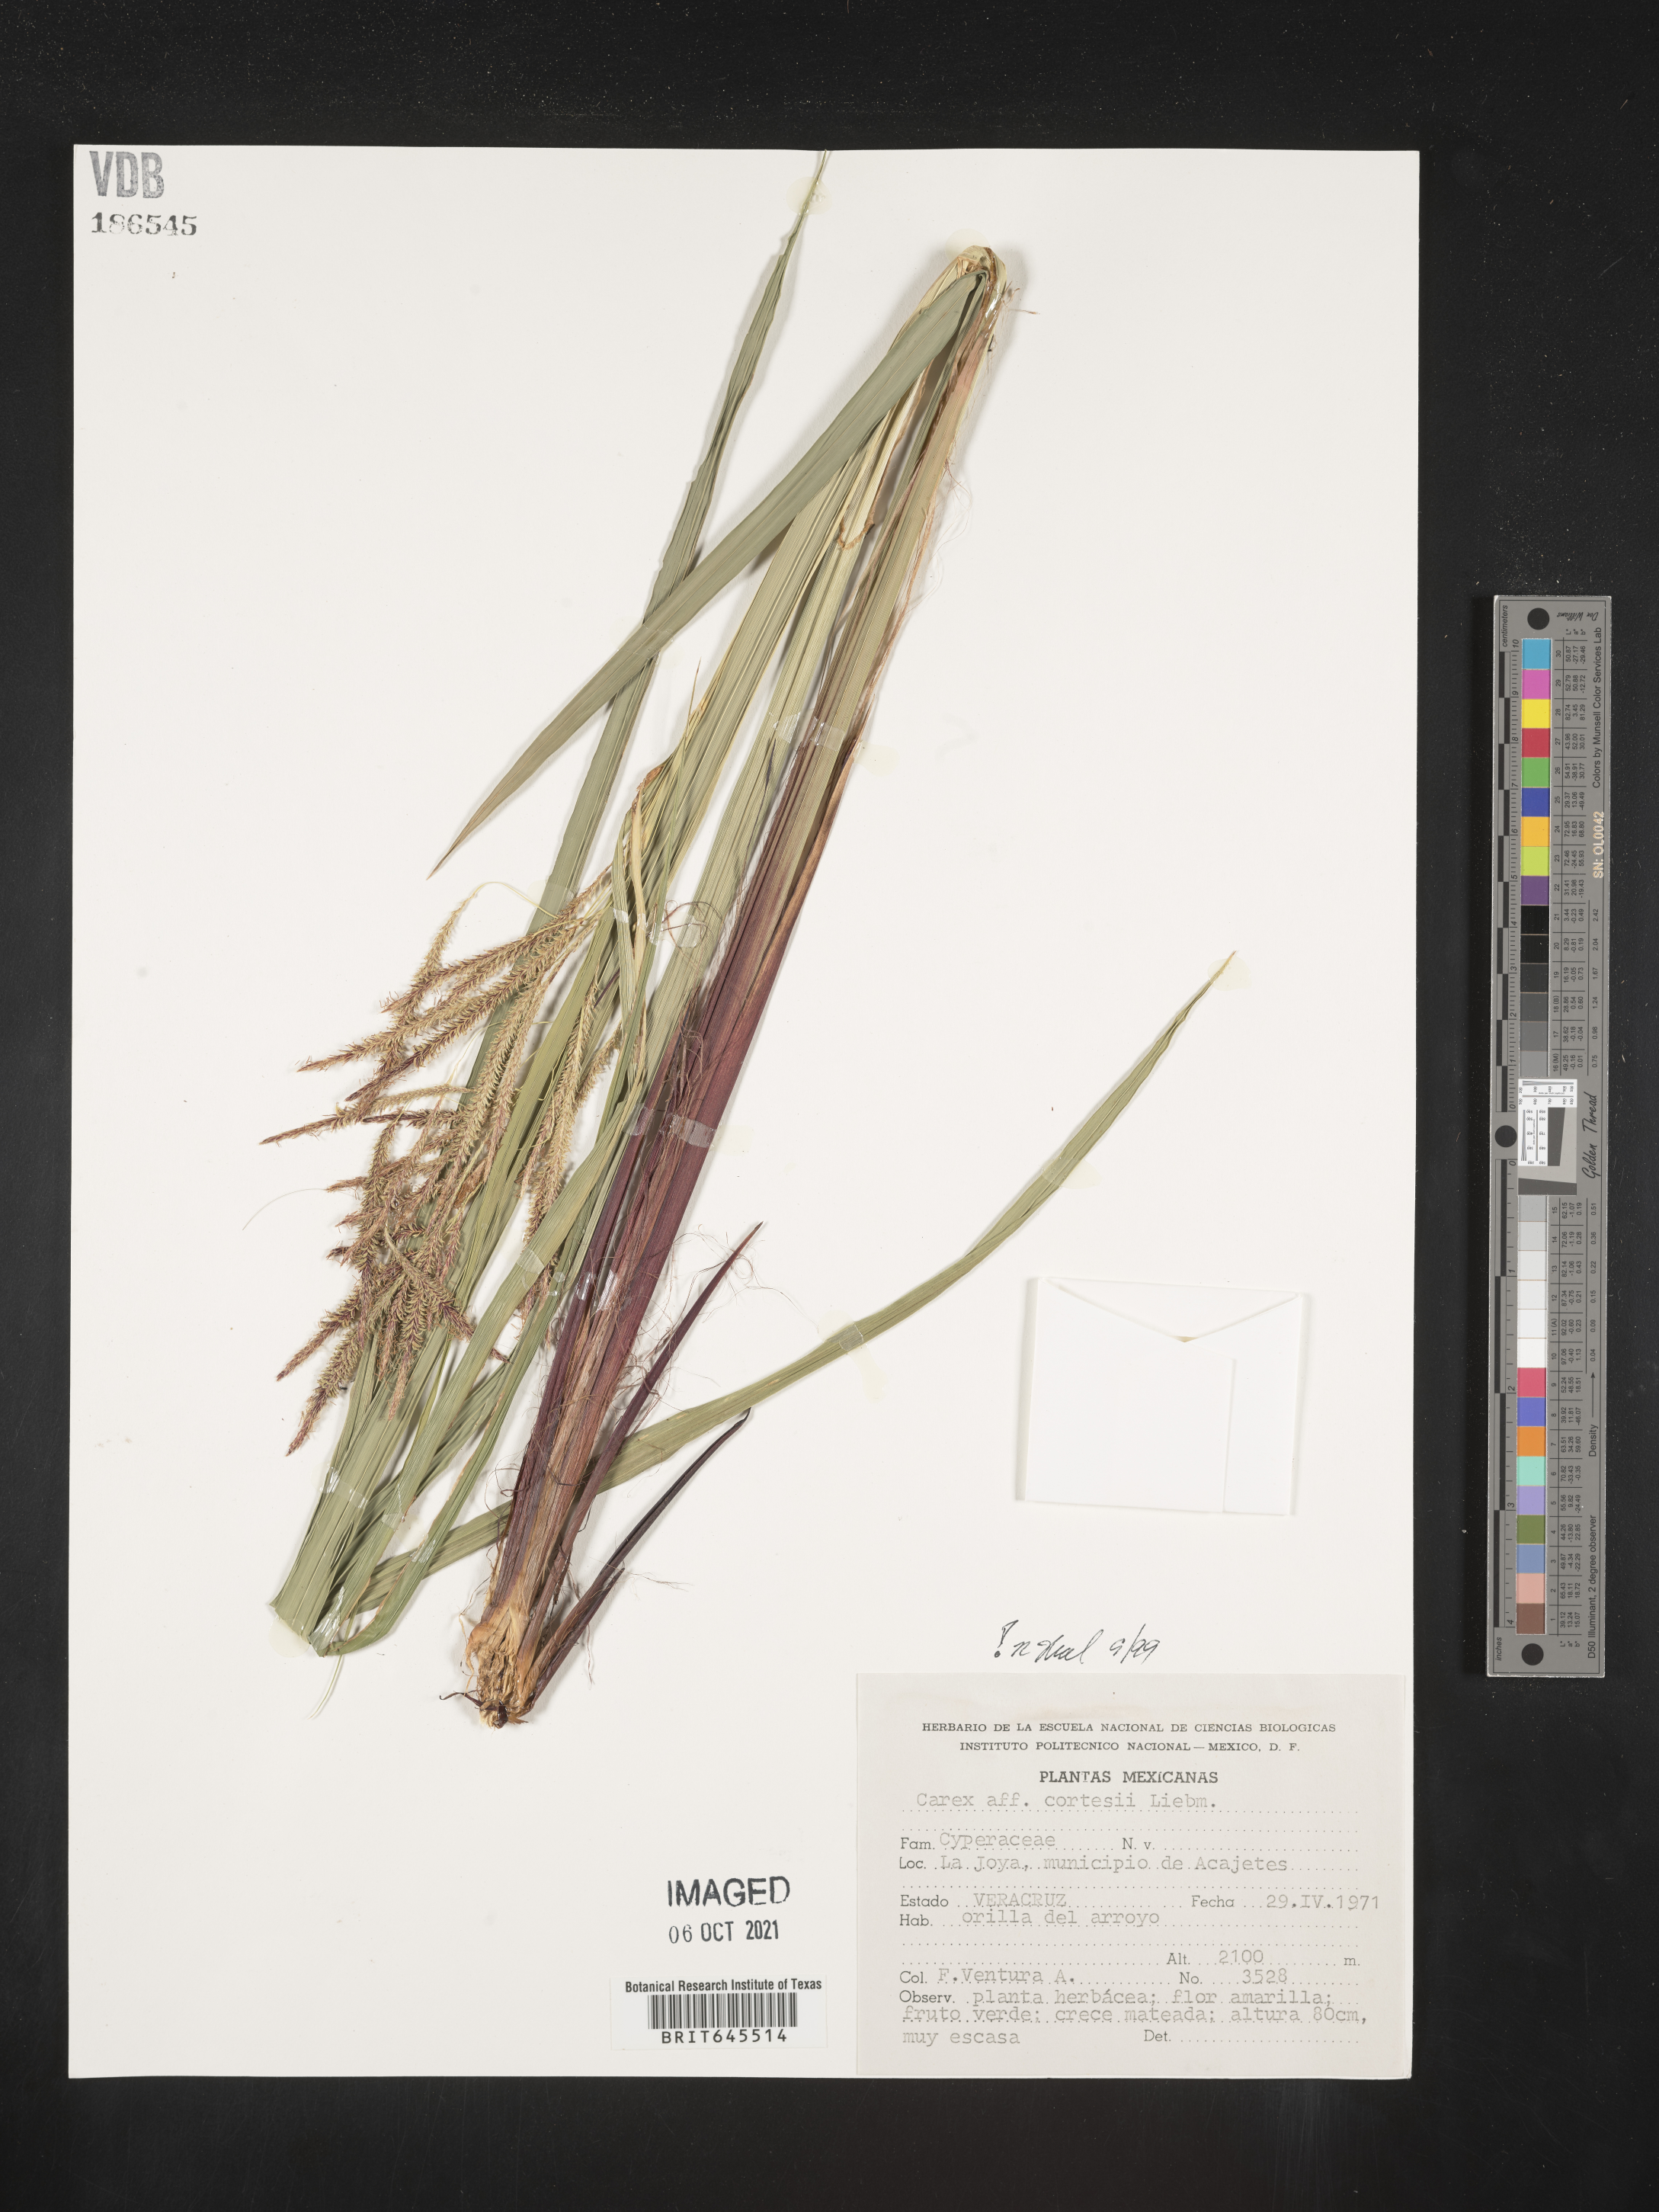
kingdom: Plantae
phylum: Tracheophyta
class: Liliopsida
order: Poales
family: Cyperaceae
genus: Carex
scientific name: Carex
